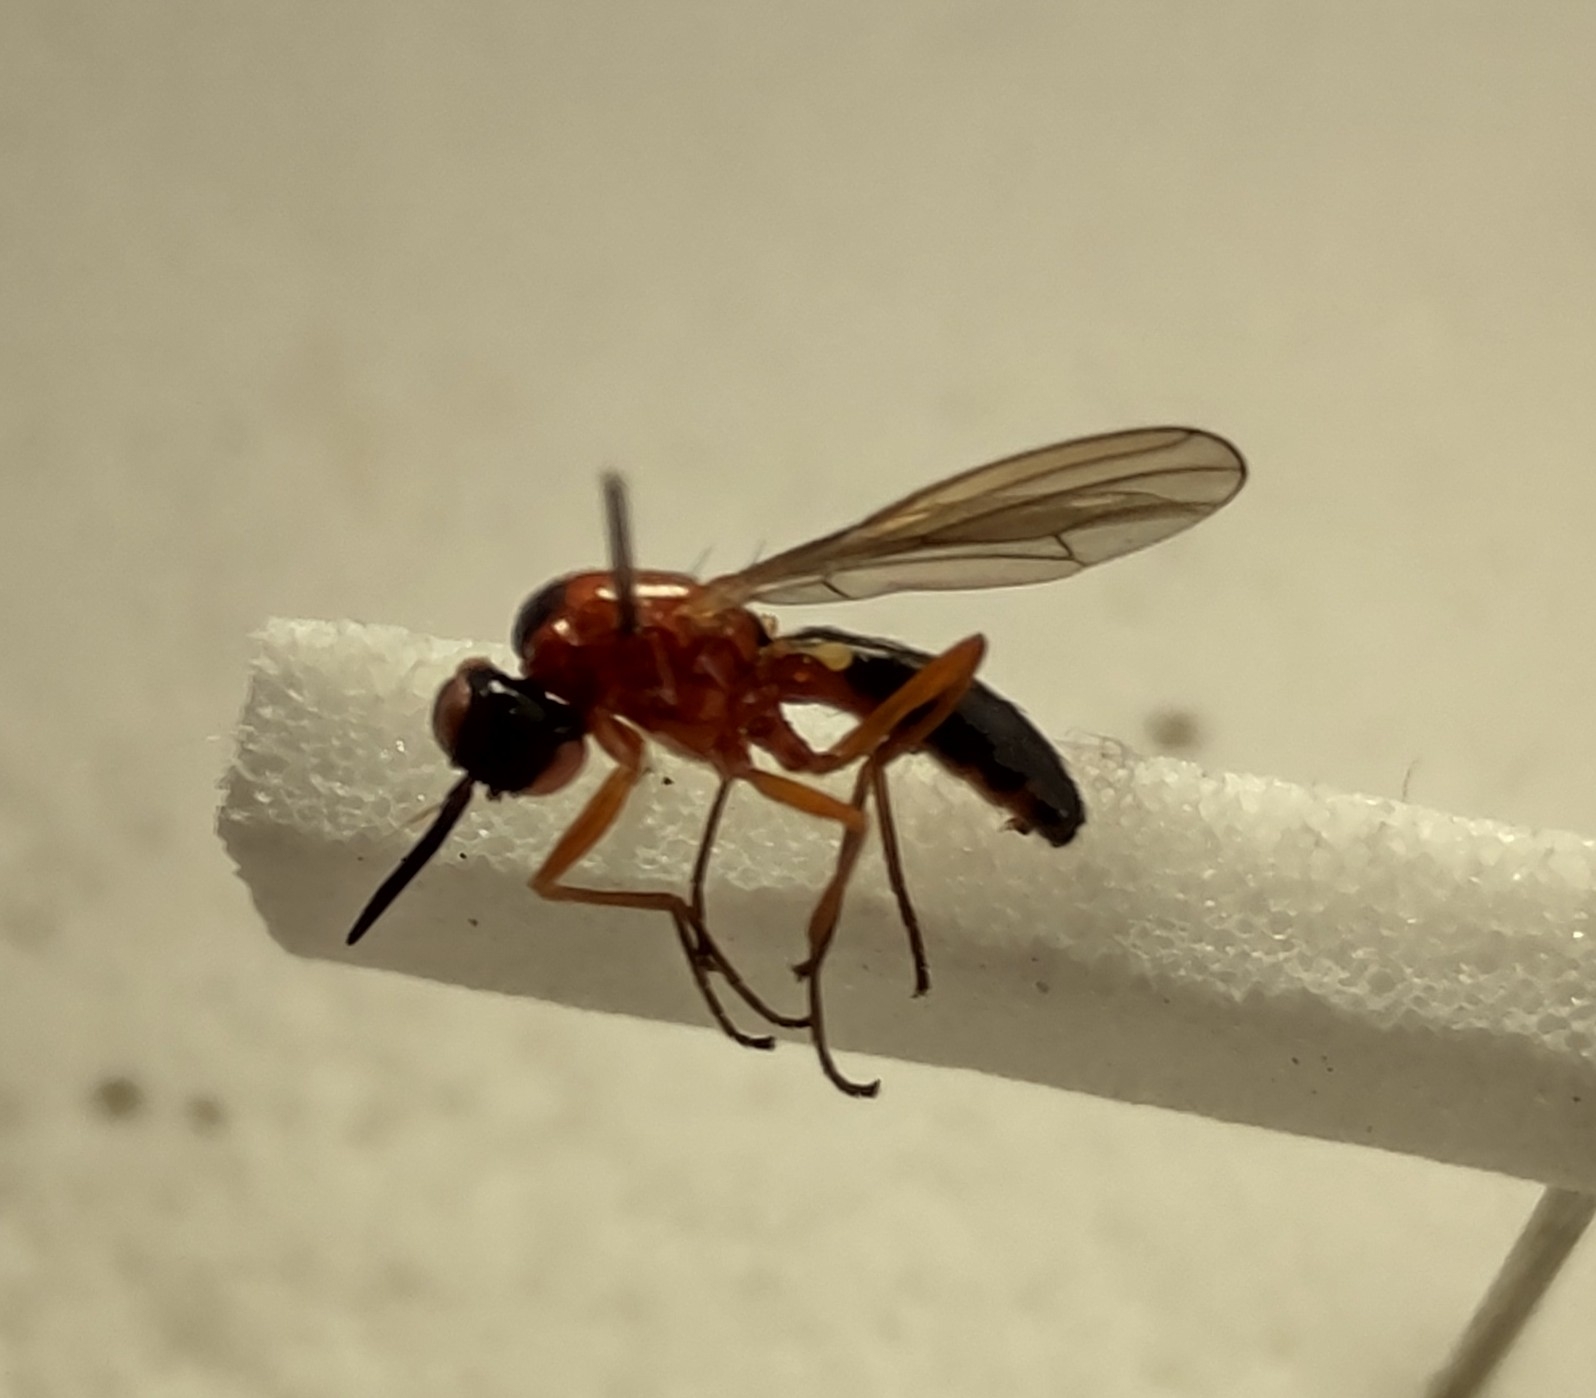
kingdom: Animalia
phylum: Arthropoda
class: Insecta
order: Diptera
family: Psilidae
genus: Loxocera
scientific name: Loxocera sylvatica
